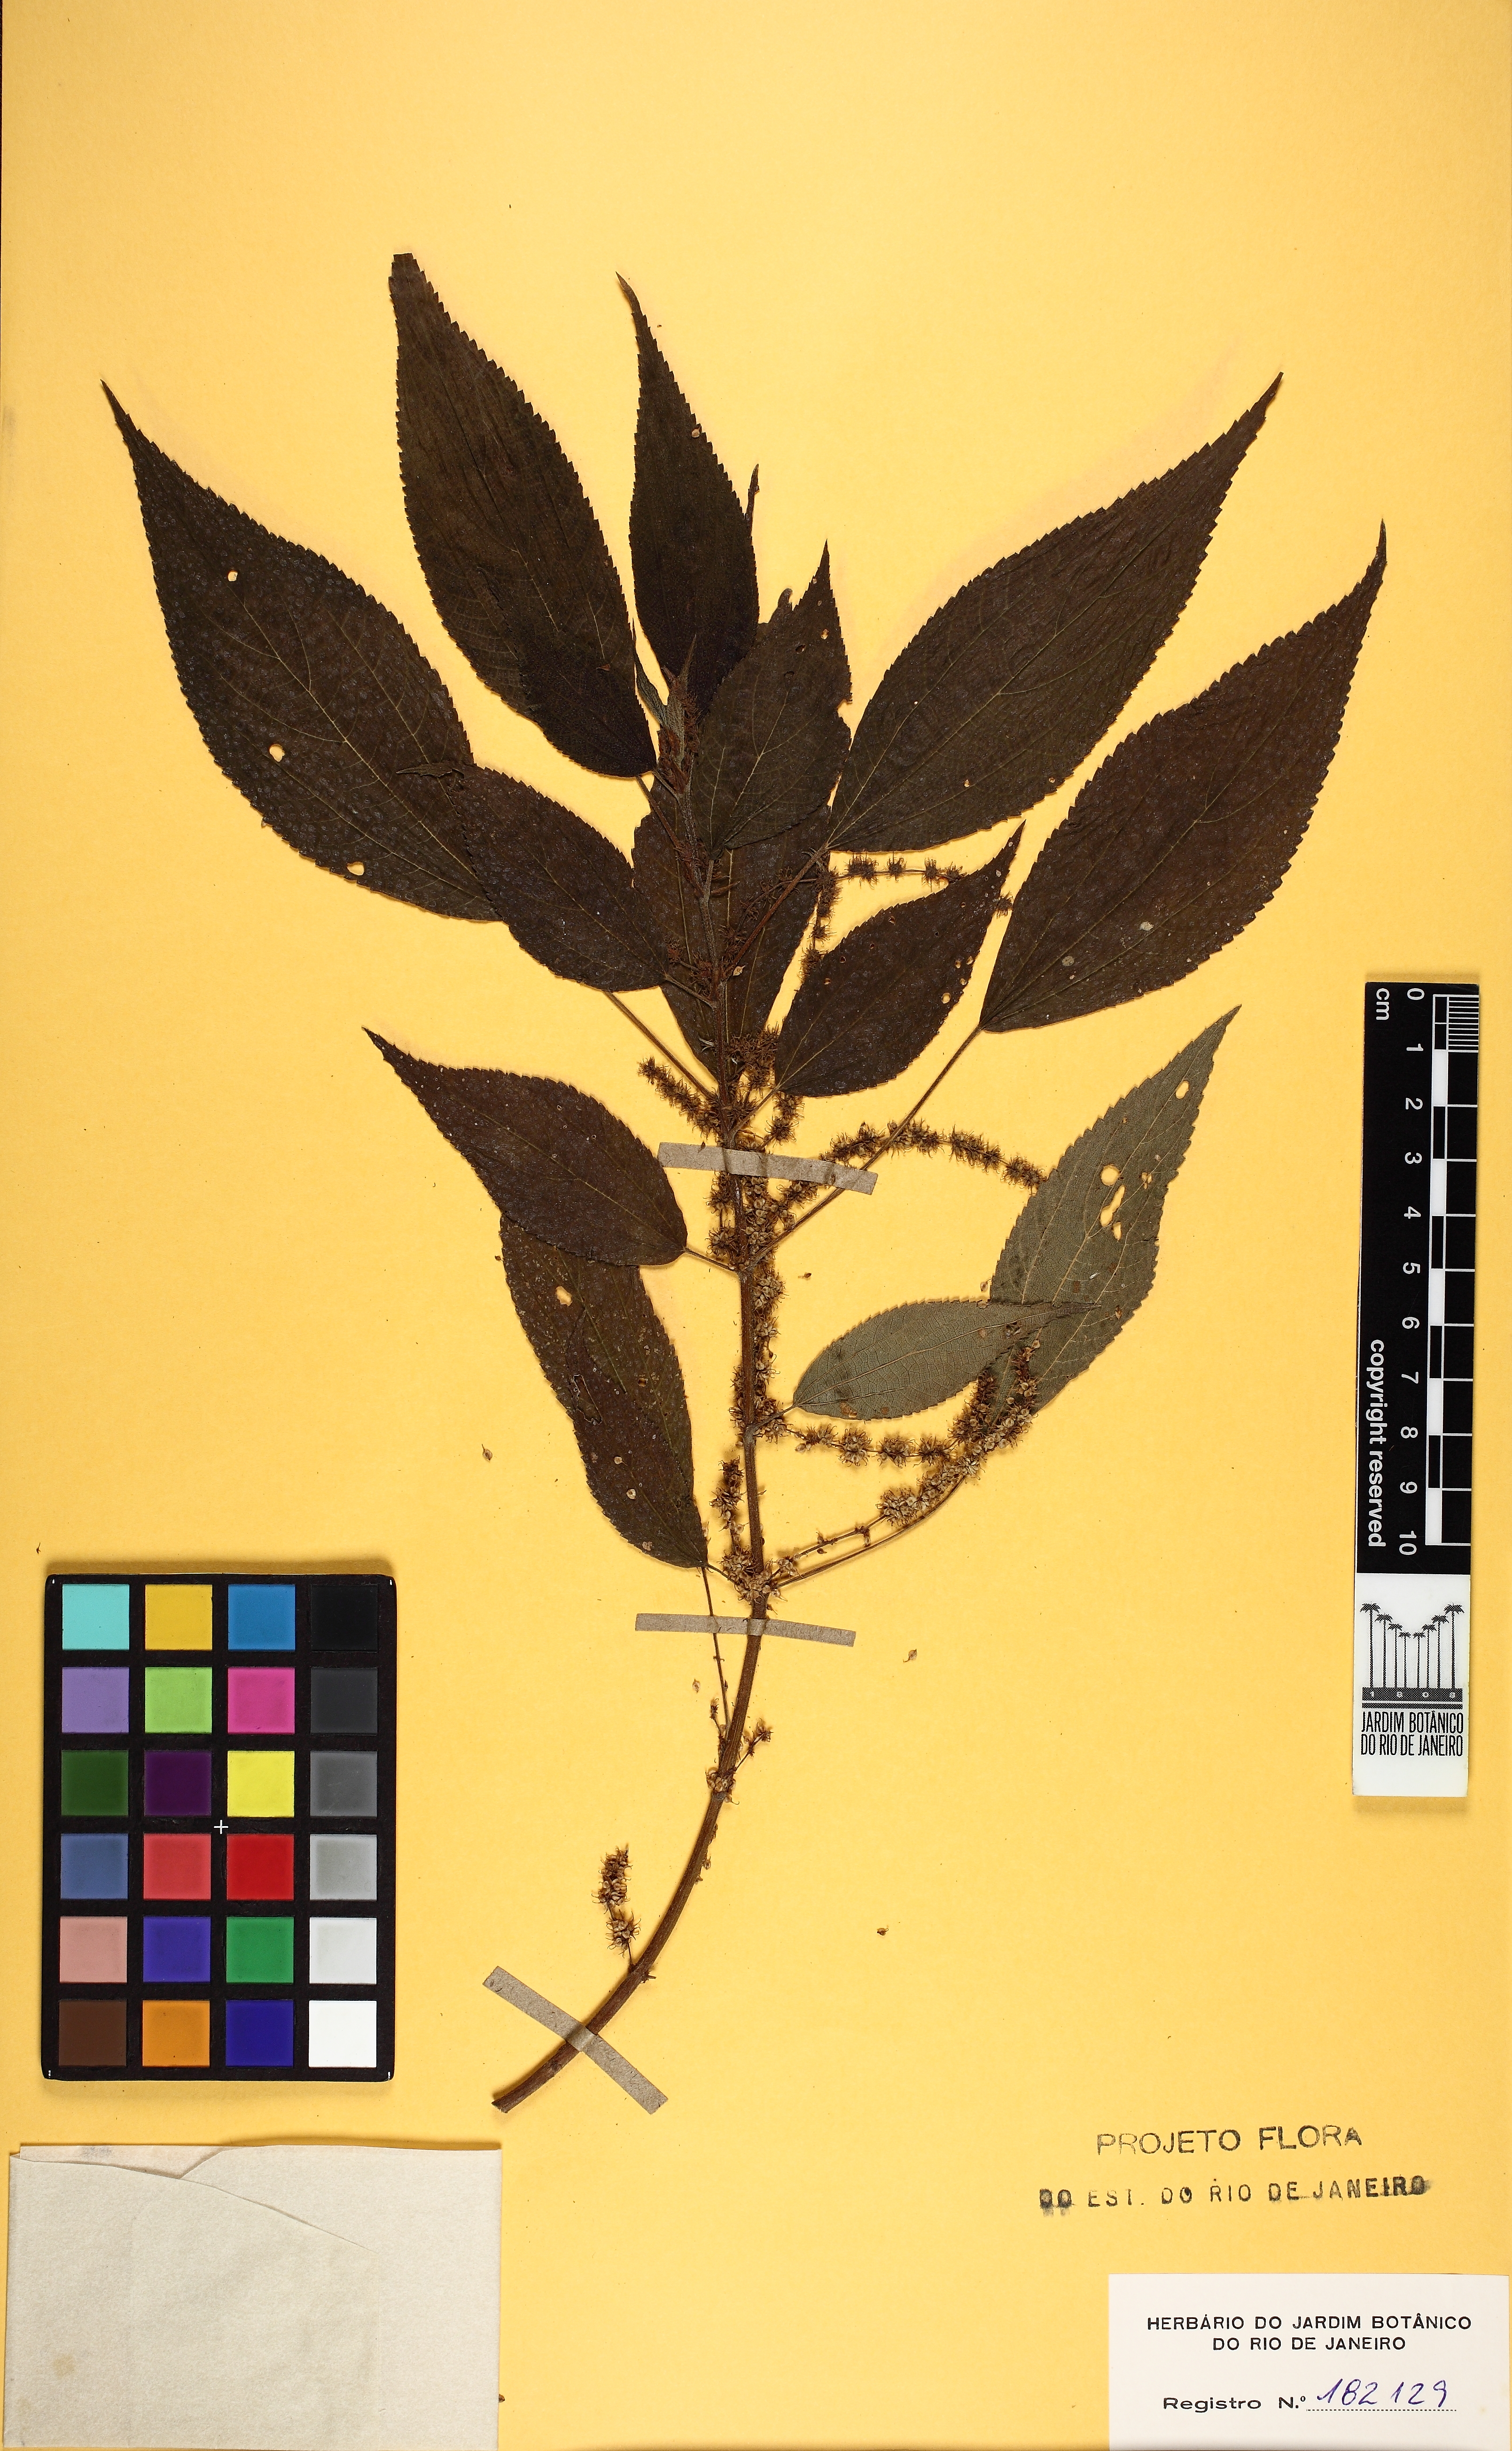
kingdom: Plantae
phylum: Tracheophyta
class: Magnoliopsida
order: Rosales
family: Urticaceae
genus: Boehmeria
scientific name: Boehmeria caudata
